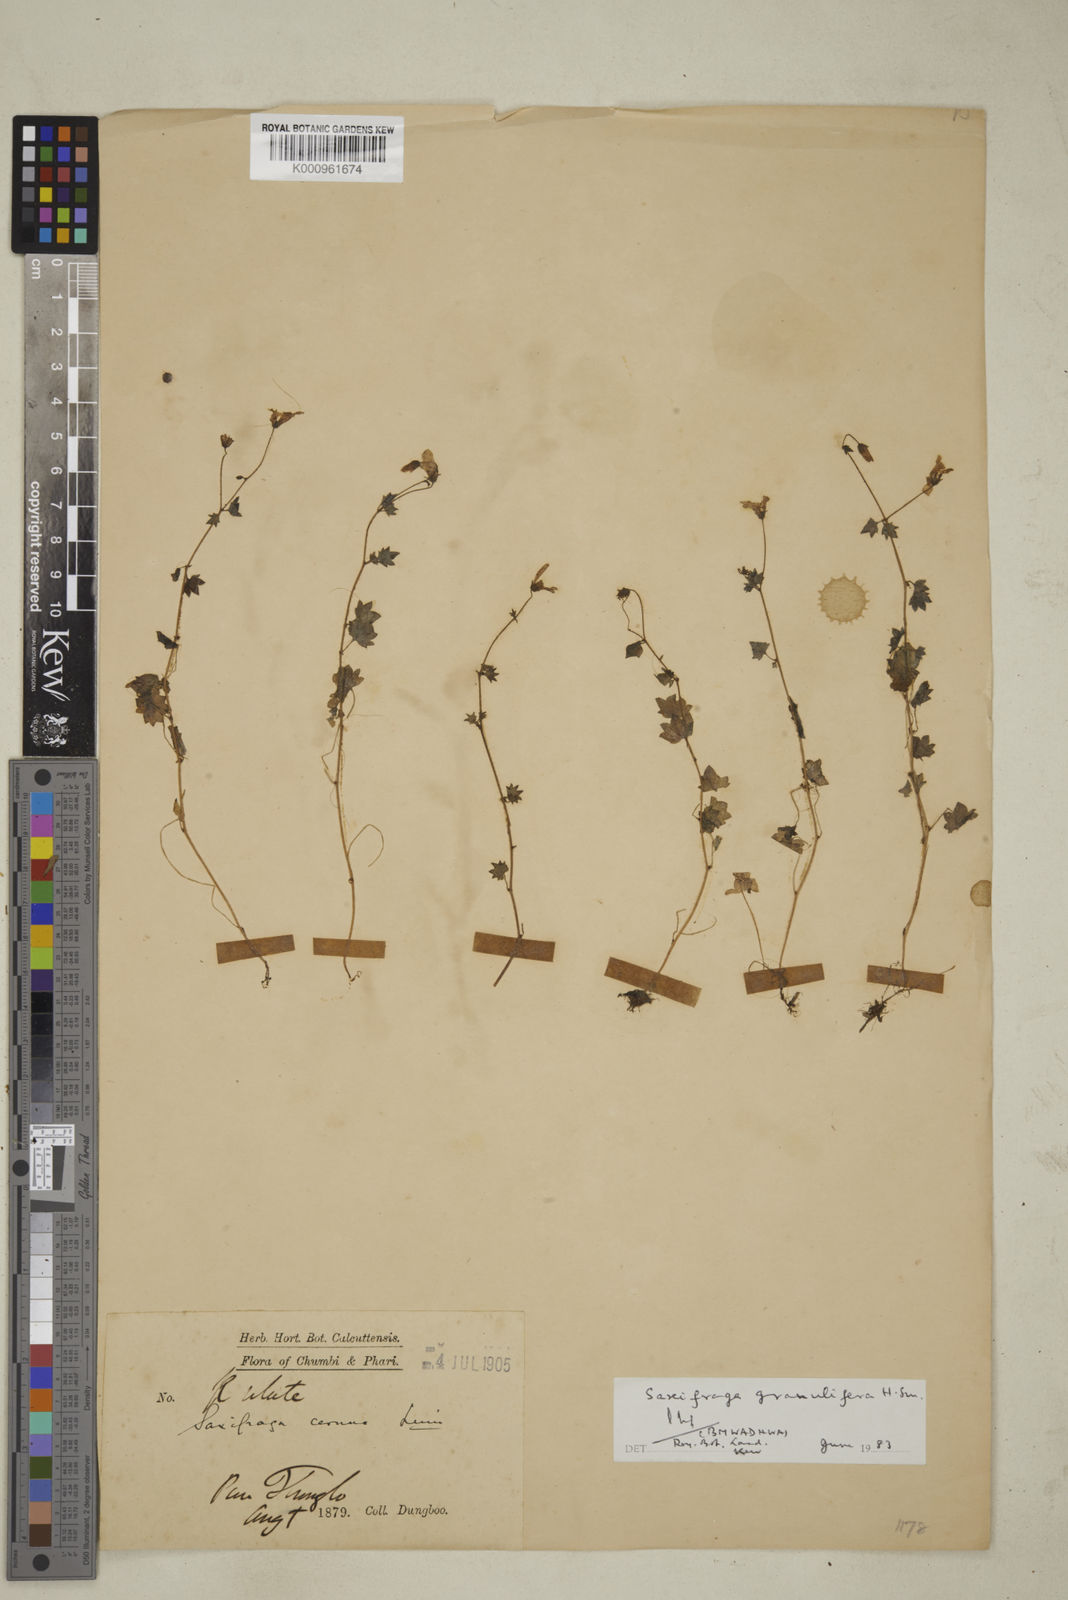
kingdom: Plantae
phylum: Tracheophyta
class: Magnoliopsida
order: Saxifragales
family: Saxifragaceae
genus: Saxifraga
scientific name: Saxifraga granulifera
